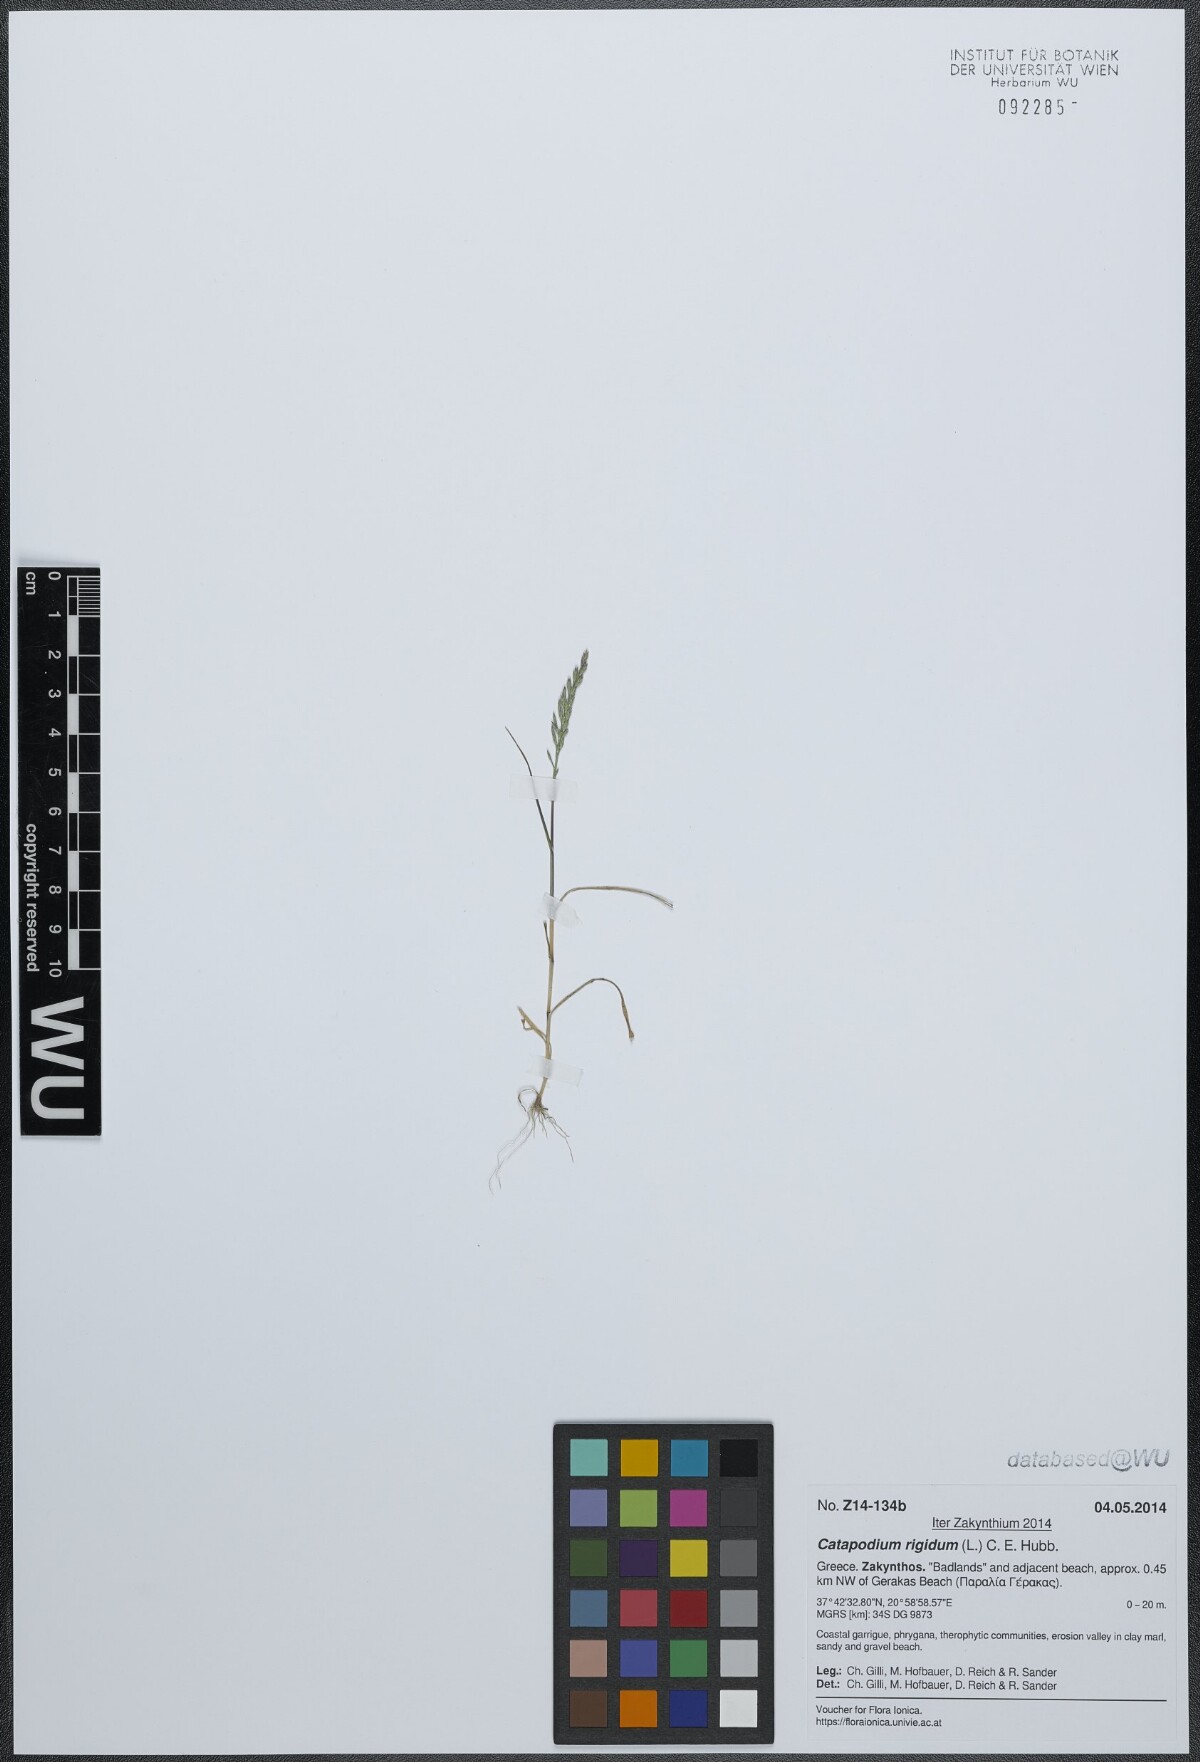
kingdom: Plantae
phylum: Tracheophyta
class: Liliopsida
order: Poales
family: Poaceae
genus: Catapodium
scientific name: Catapodium rigidum
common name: Fern-grass
